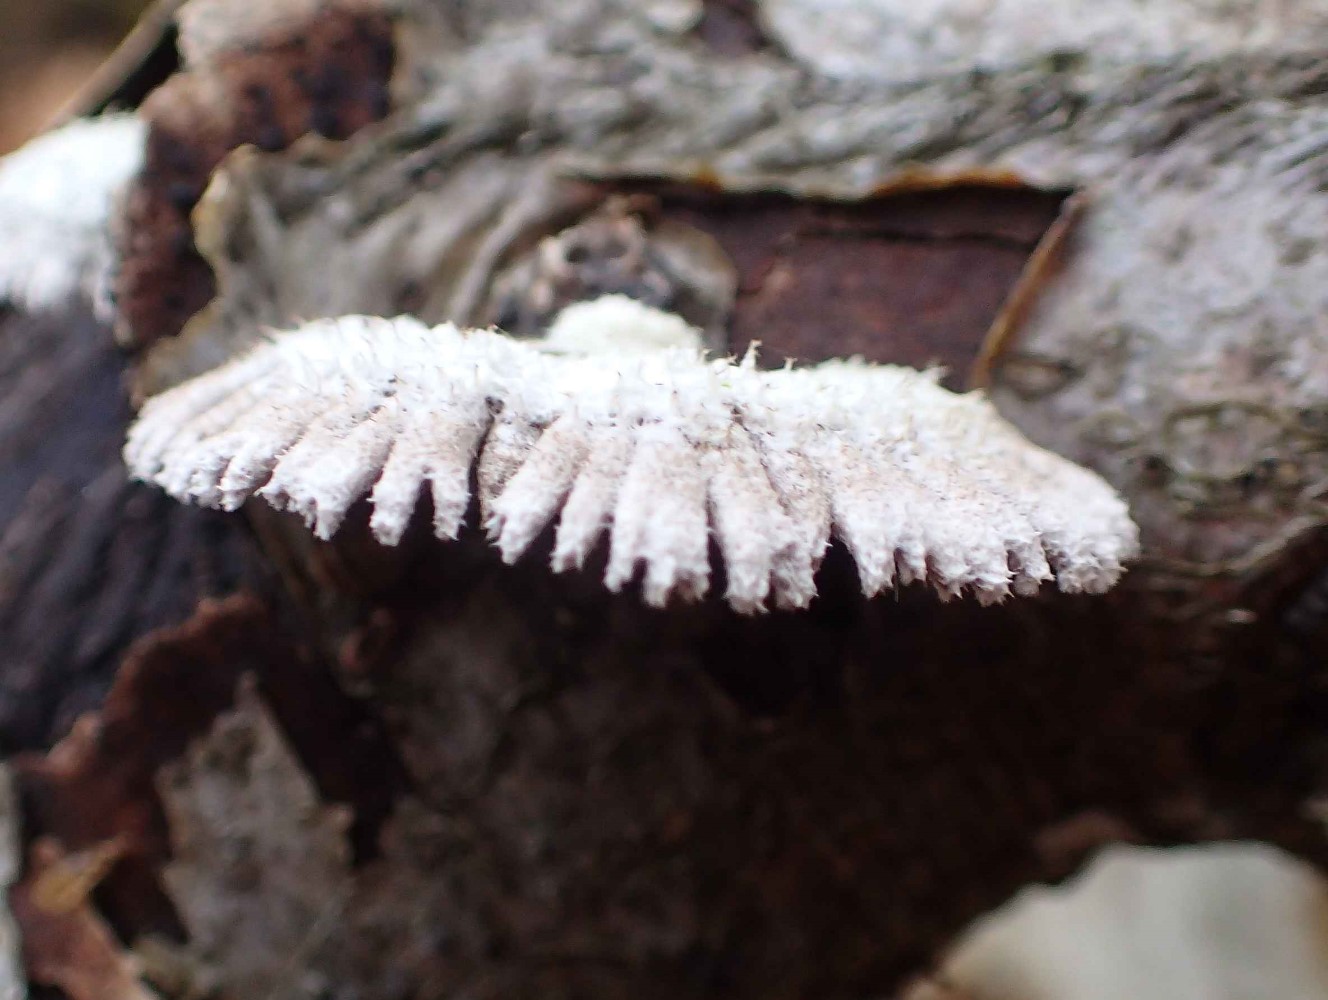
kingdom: Fungi
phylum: Basidiomycota
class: Agaricomycetes
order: Agaricales
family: Schizophyllaceae
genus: Schizophyllum
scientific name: Schizophyllum commune
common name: kløvblad
